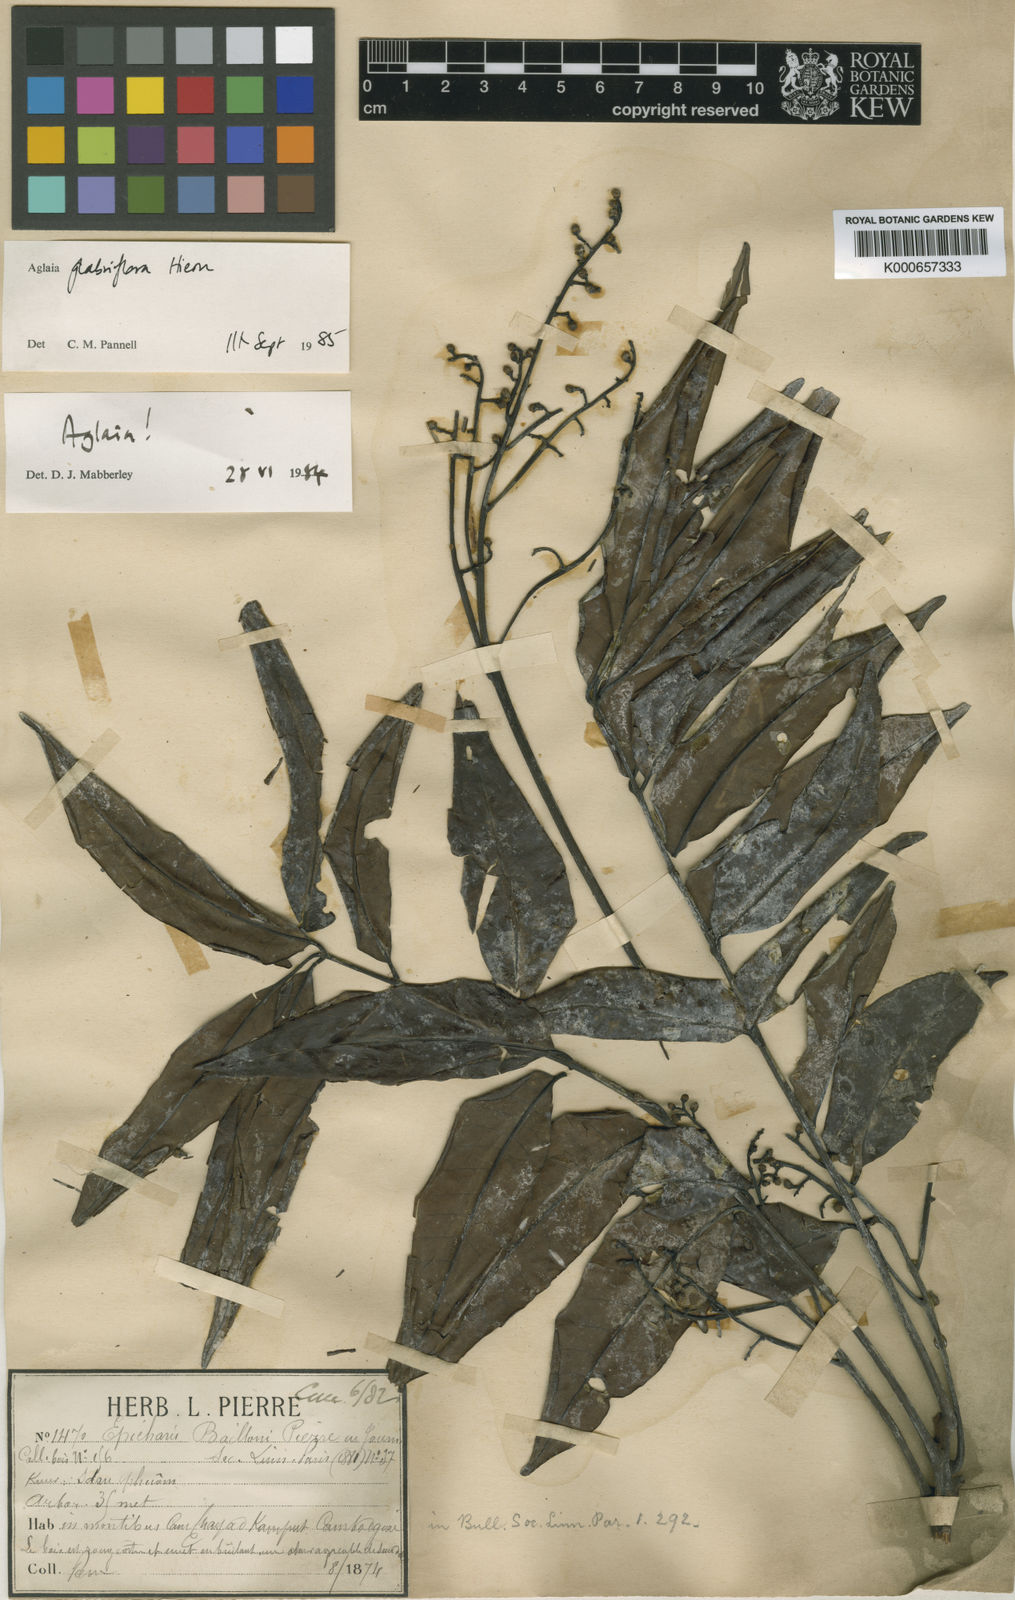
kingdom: Plantae
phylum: Tracheophyta
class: Magnoliopsida
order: Sapindales
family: Meliaceae
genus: Aglaia
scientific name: Aglaia leptantha
